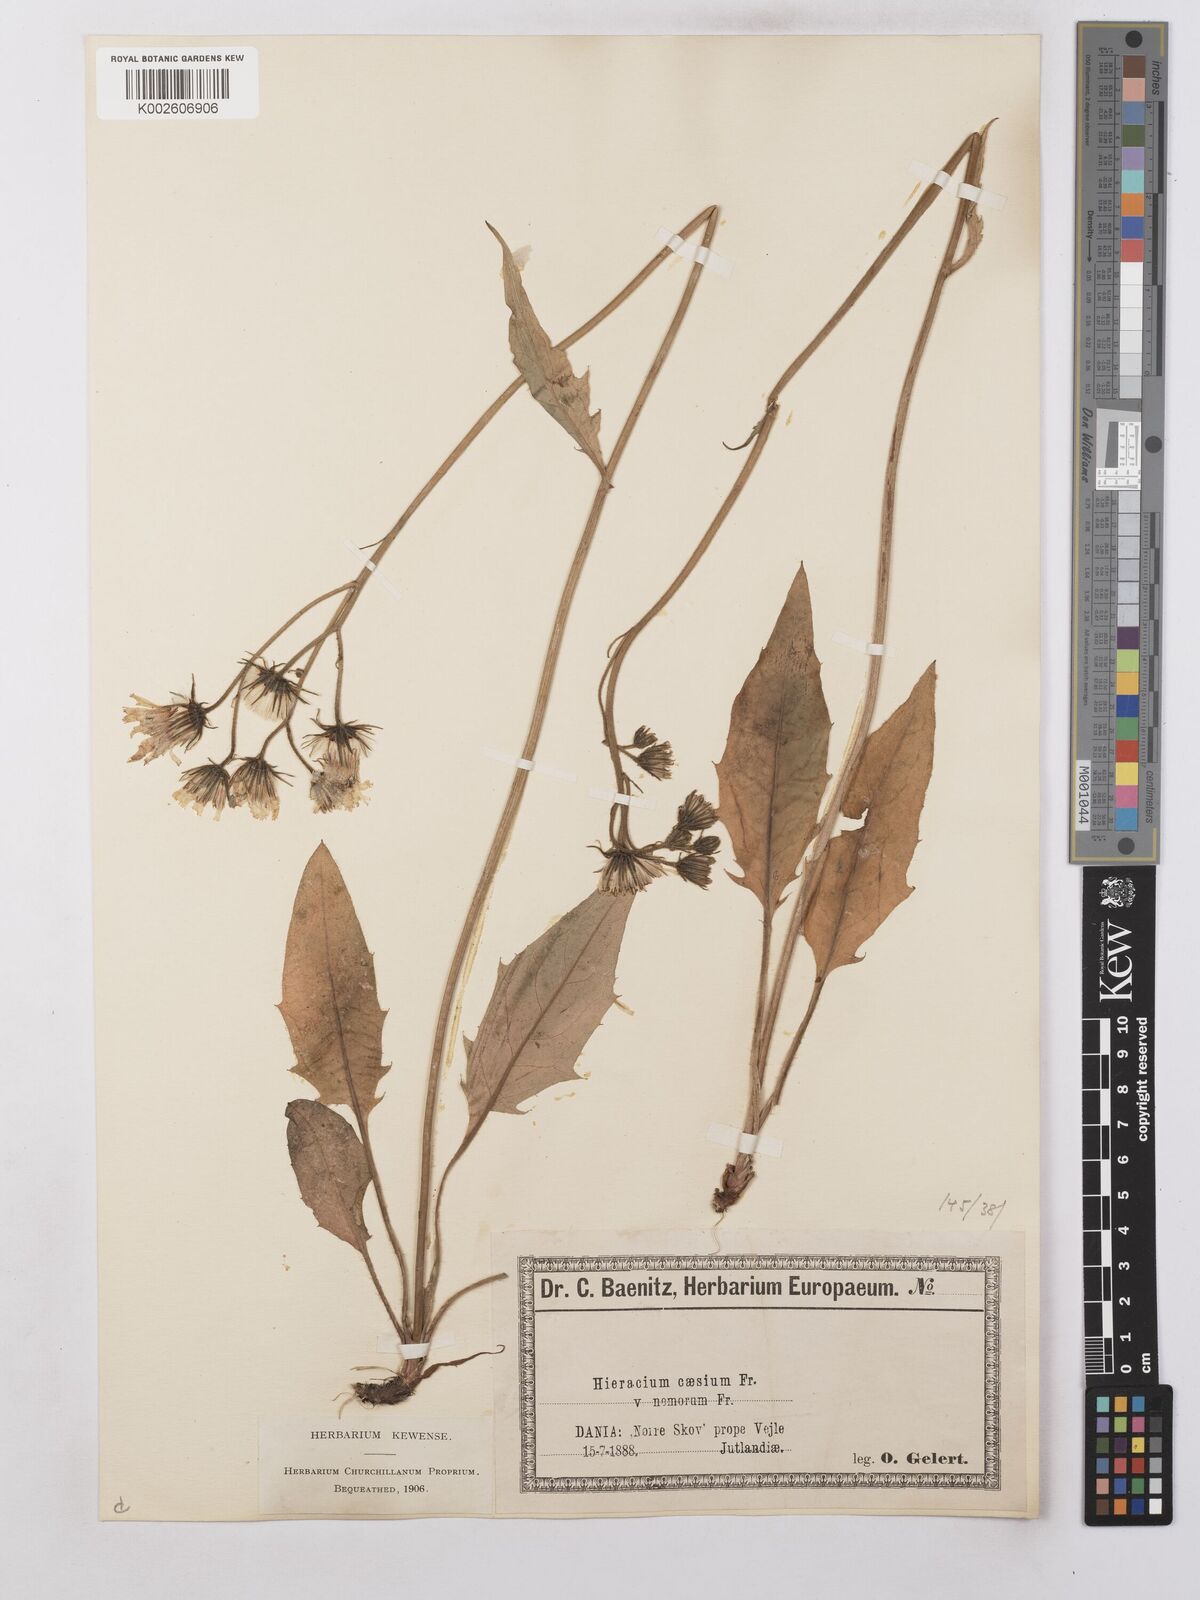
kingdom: Plantae
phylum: Tracheophyta
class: Magnoliopsida
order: Asterales
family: Asteraceae
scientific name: Asteraceae
